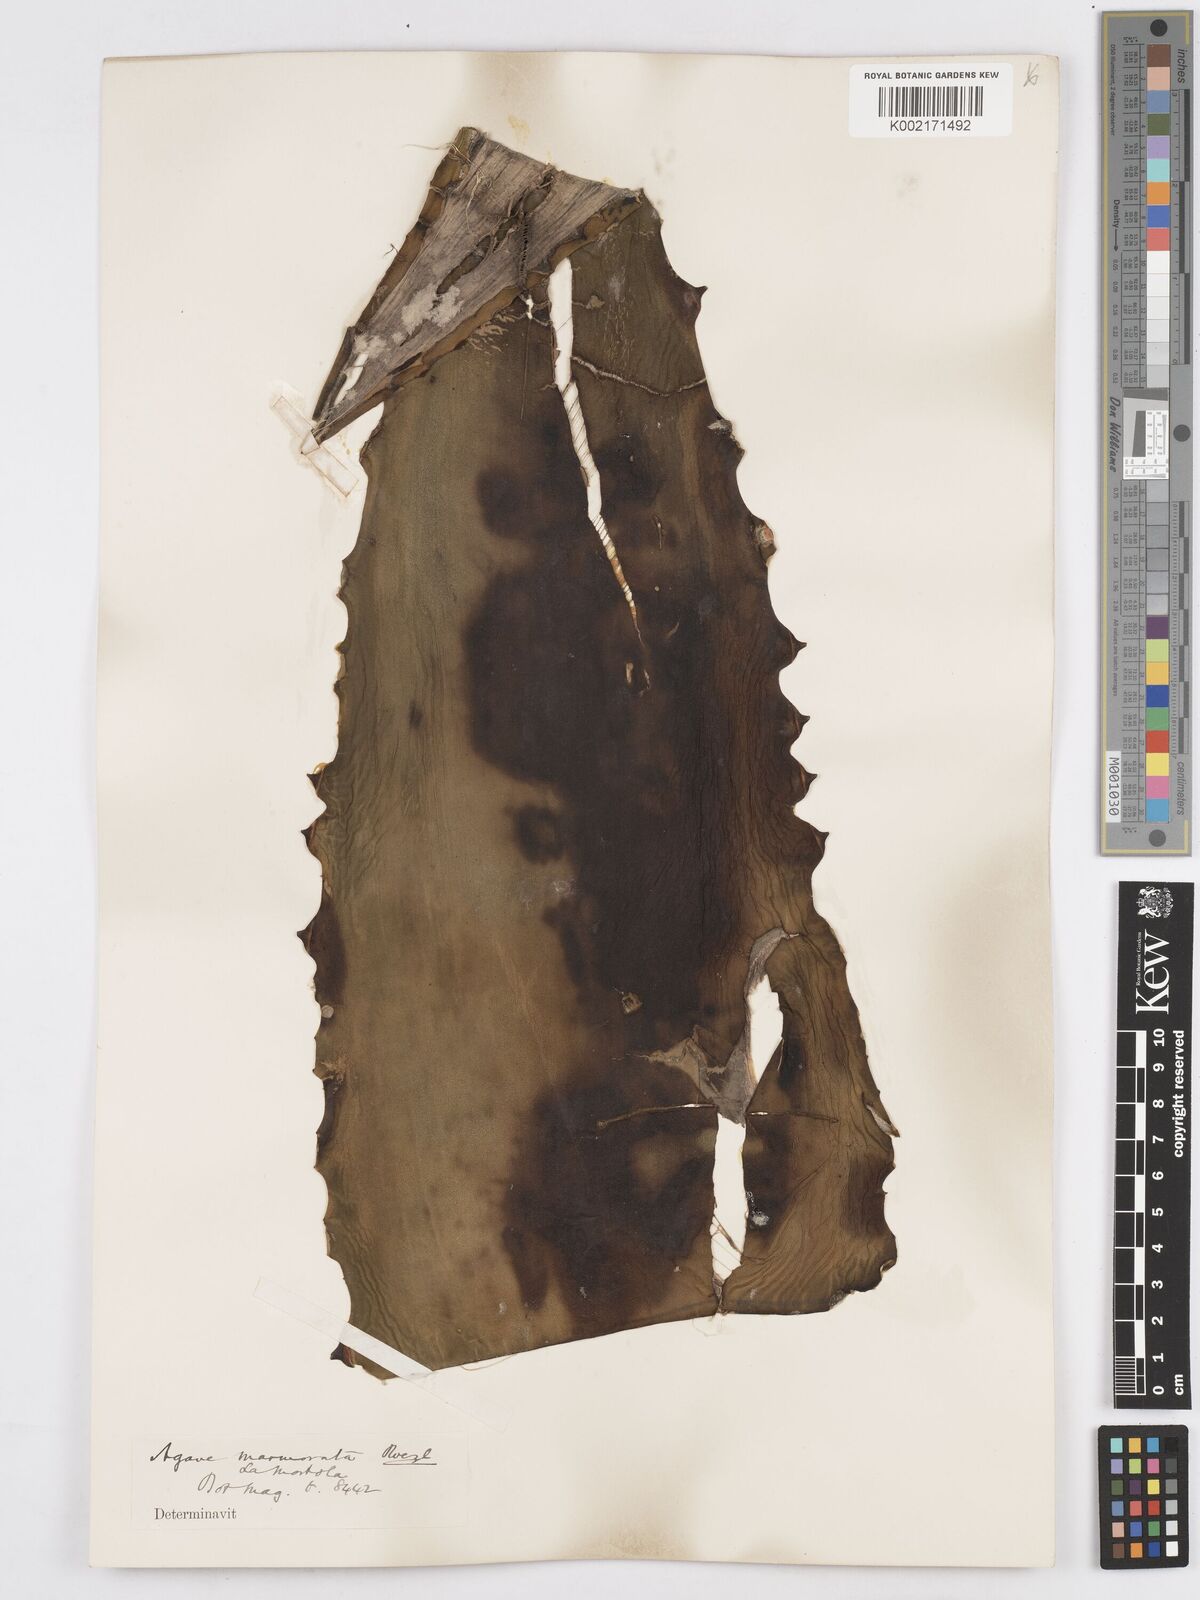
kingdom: Plantae
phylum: Tracheophyta
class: Liliopsida
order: Asparagales
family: Asparagaceae
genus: Agave
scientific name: Agave marmorata
